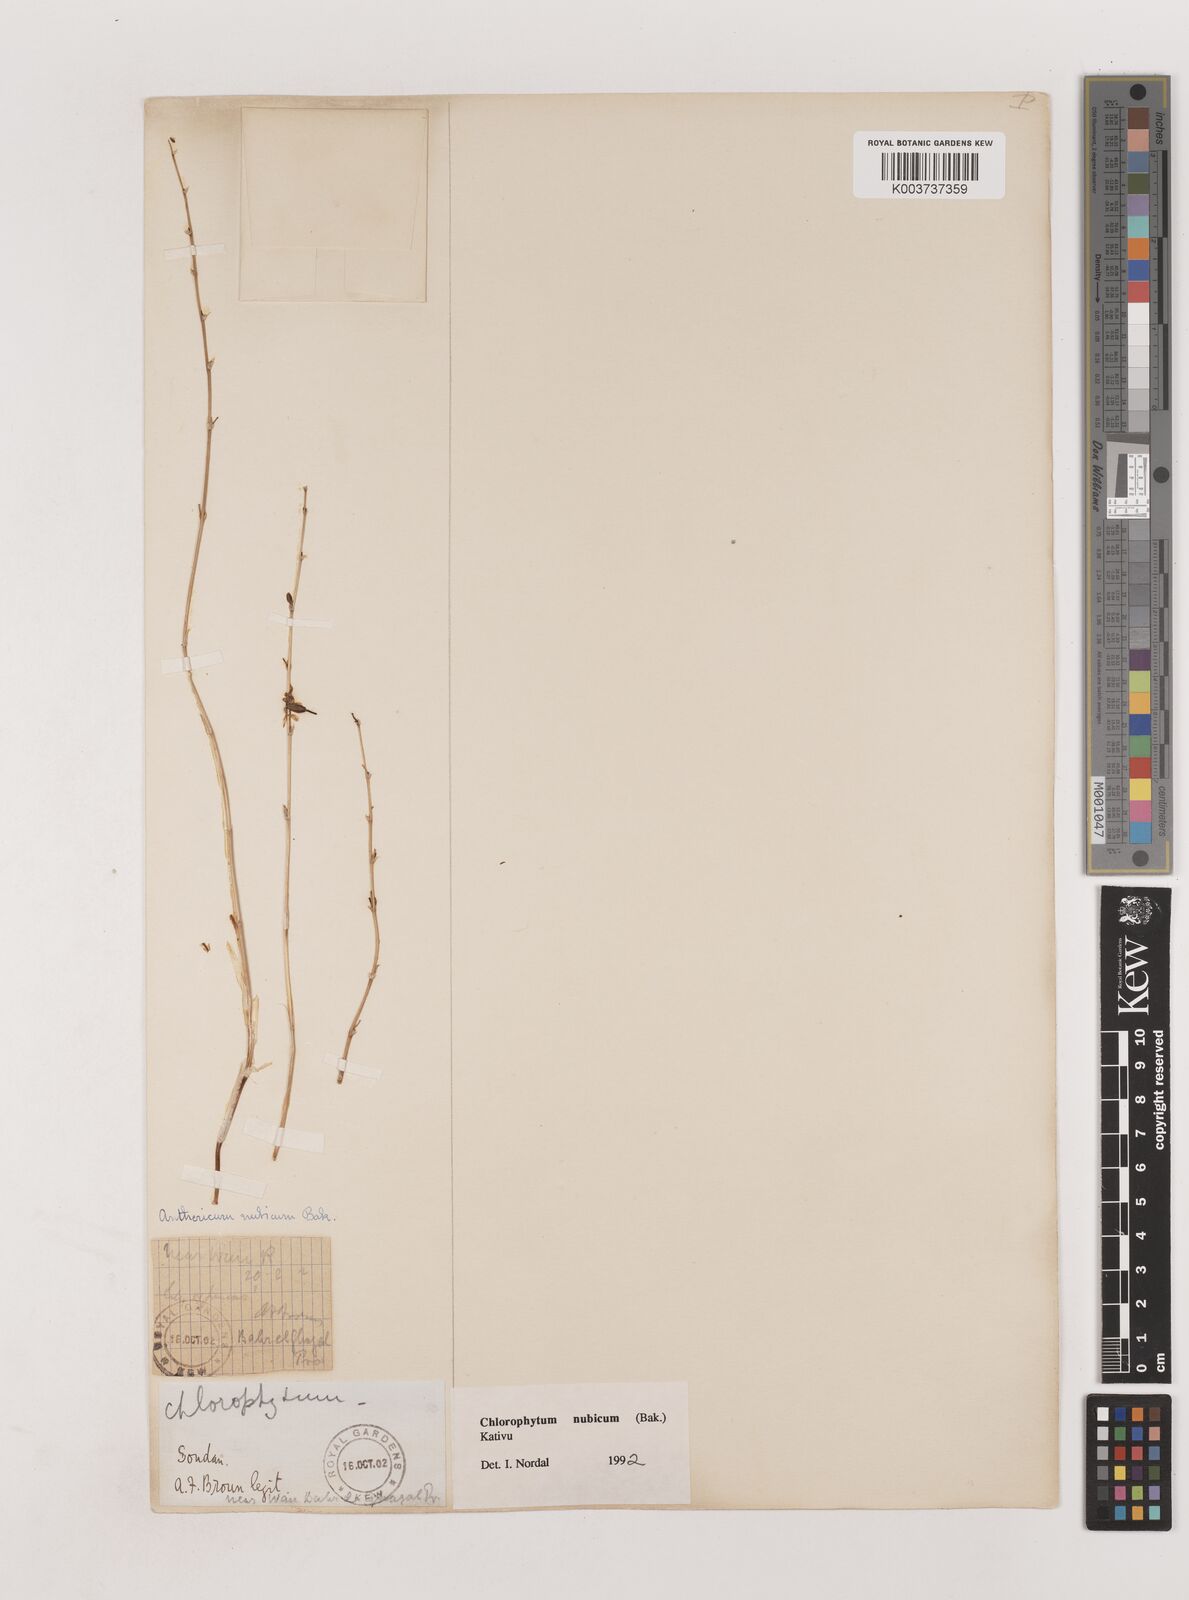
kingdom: Plantae
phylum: Tracheophyta
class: Liliopsida
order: Asparagales
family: Asparagaceae
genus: Chlorophytum
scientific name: Chlorophytum nubicum
